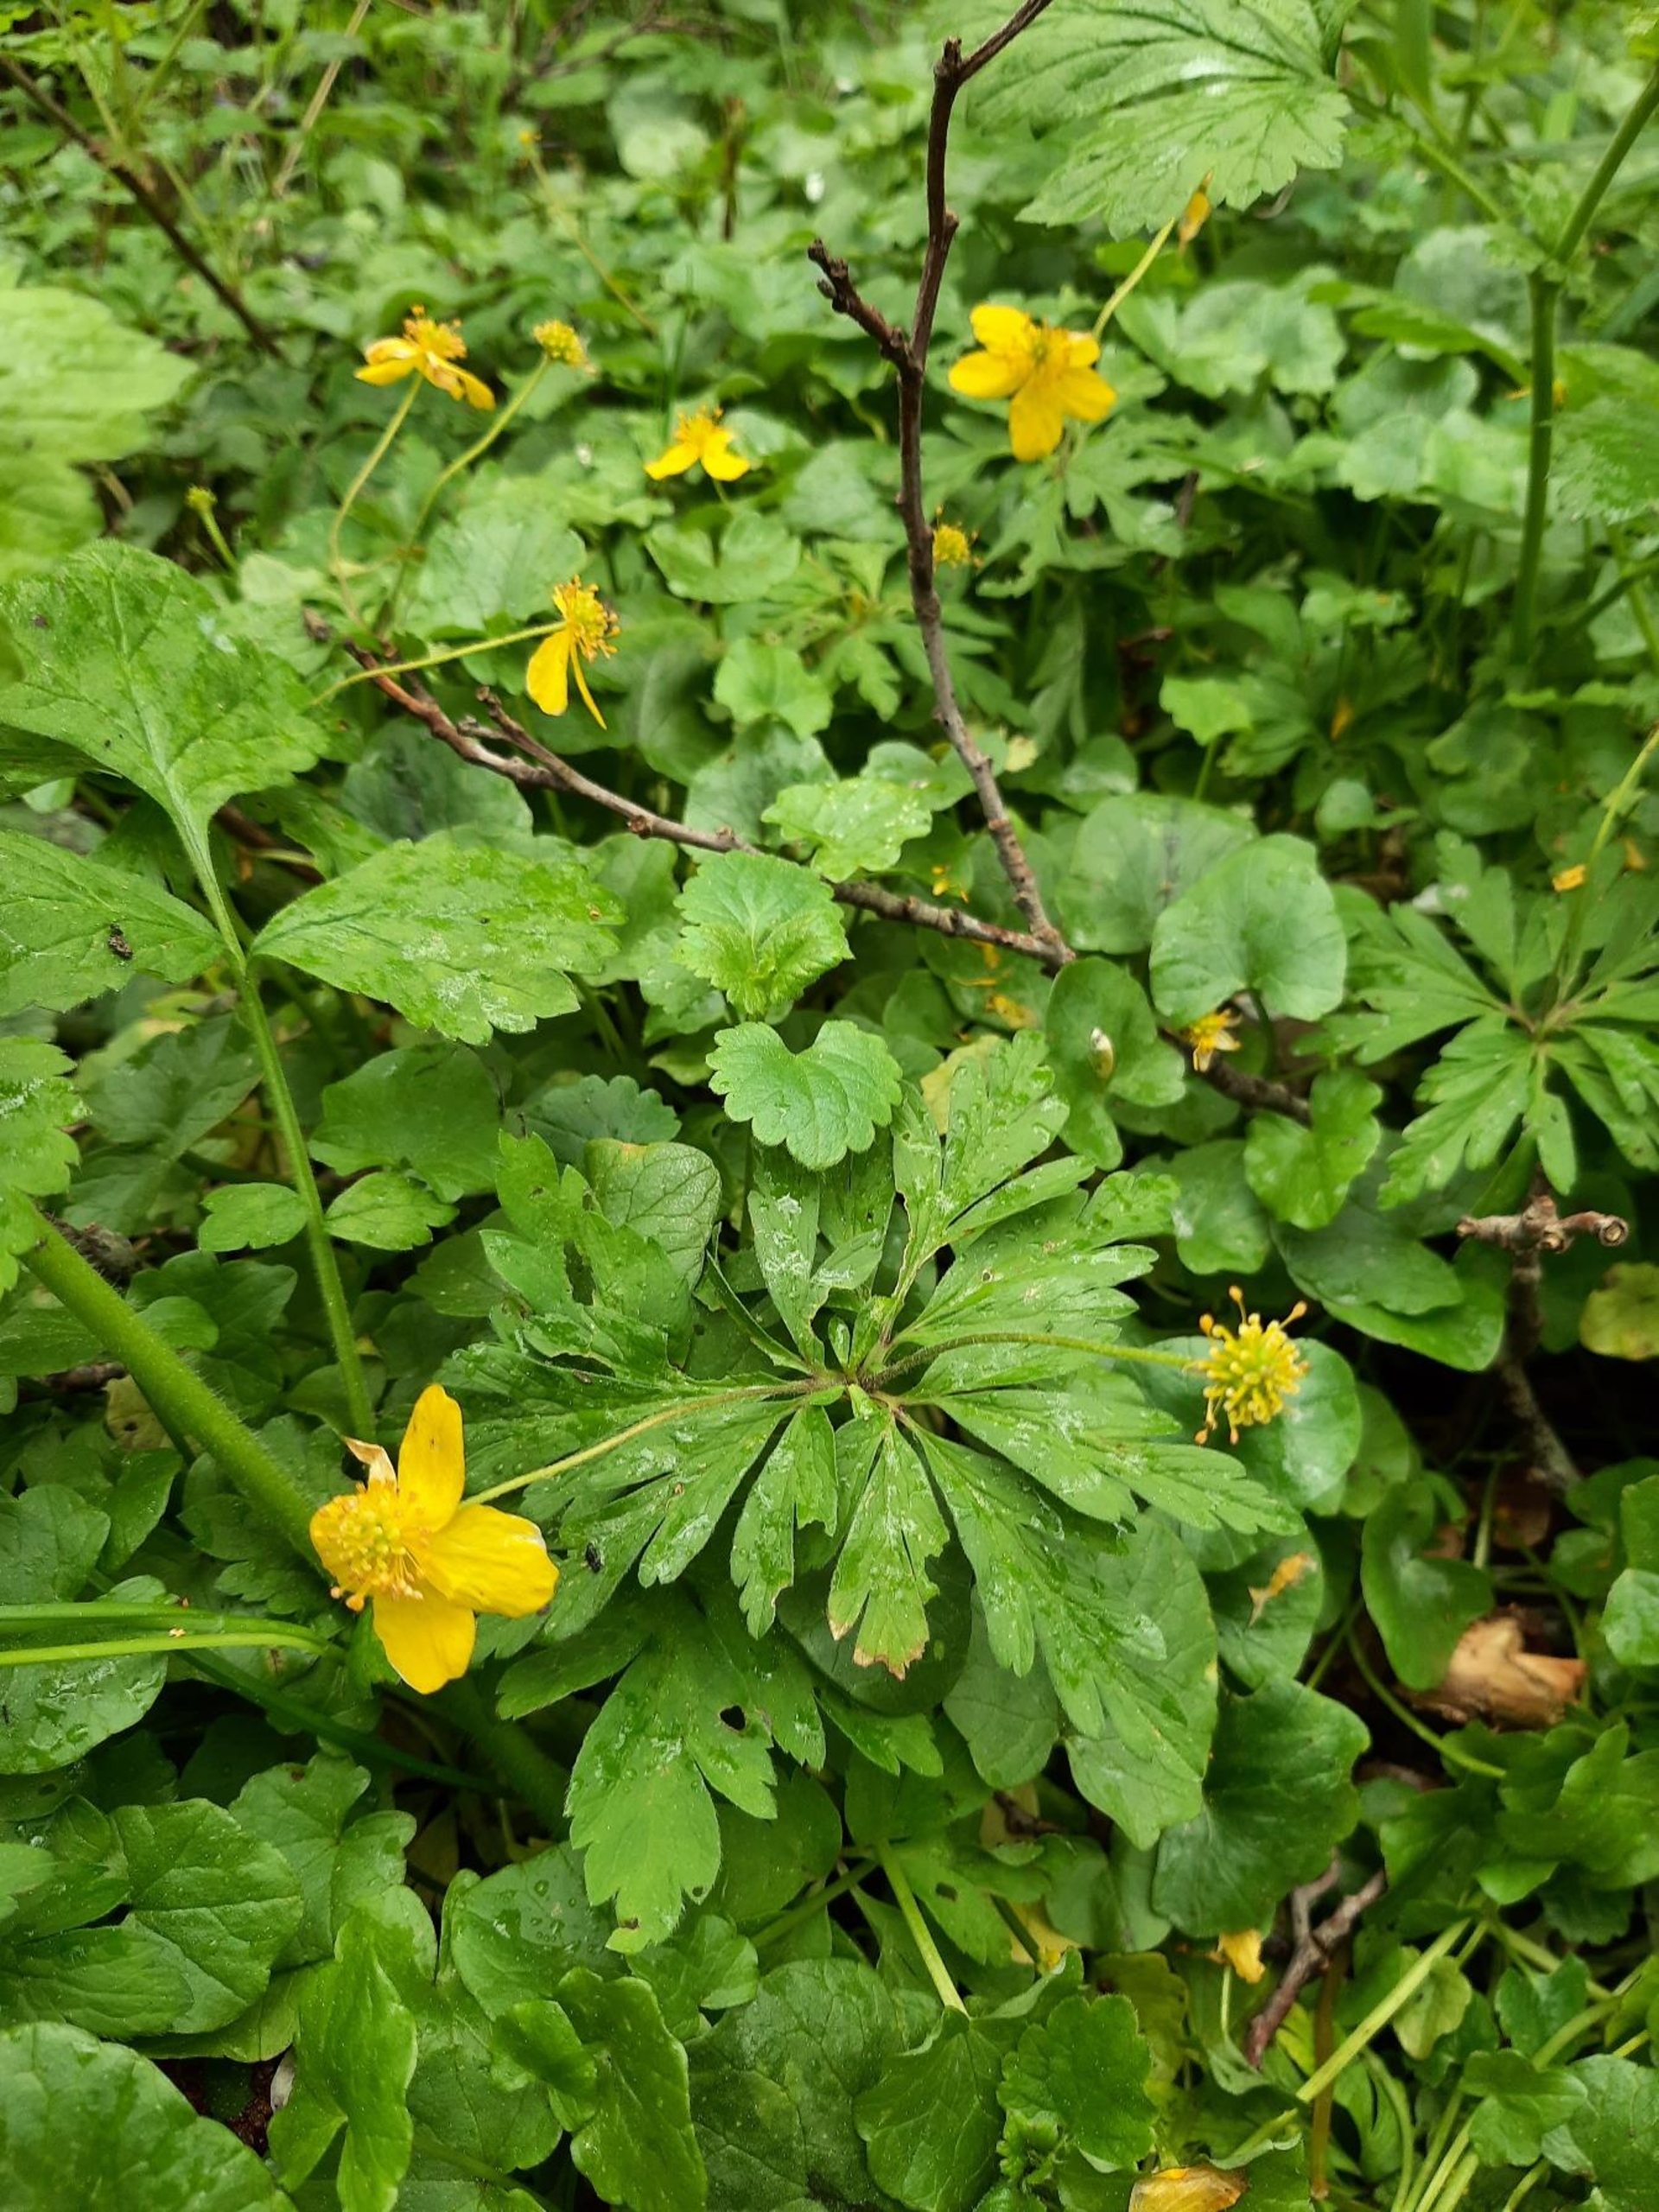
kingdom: Plantae
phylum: Tracheophyta
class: Magnoliopsida
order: Ranunculales
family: Ranunculaceae
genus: Anemone
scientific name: Anemone ranunculoides
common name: Gul anemone
